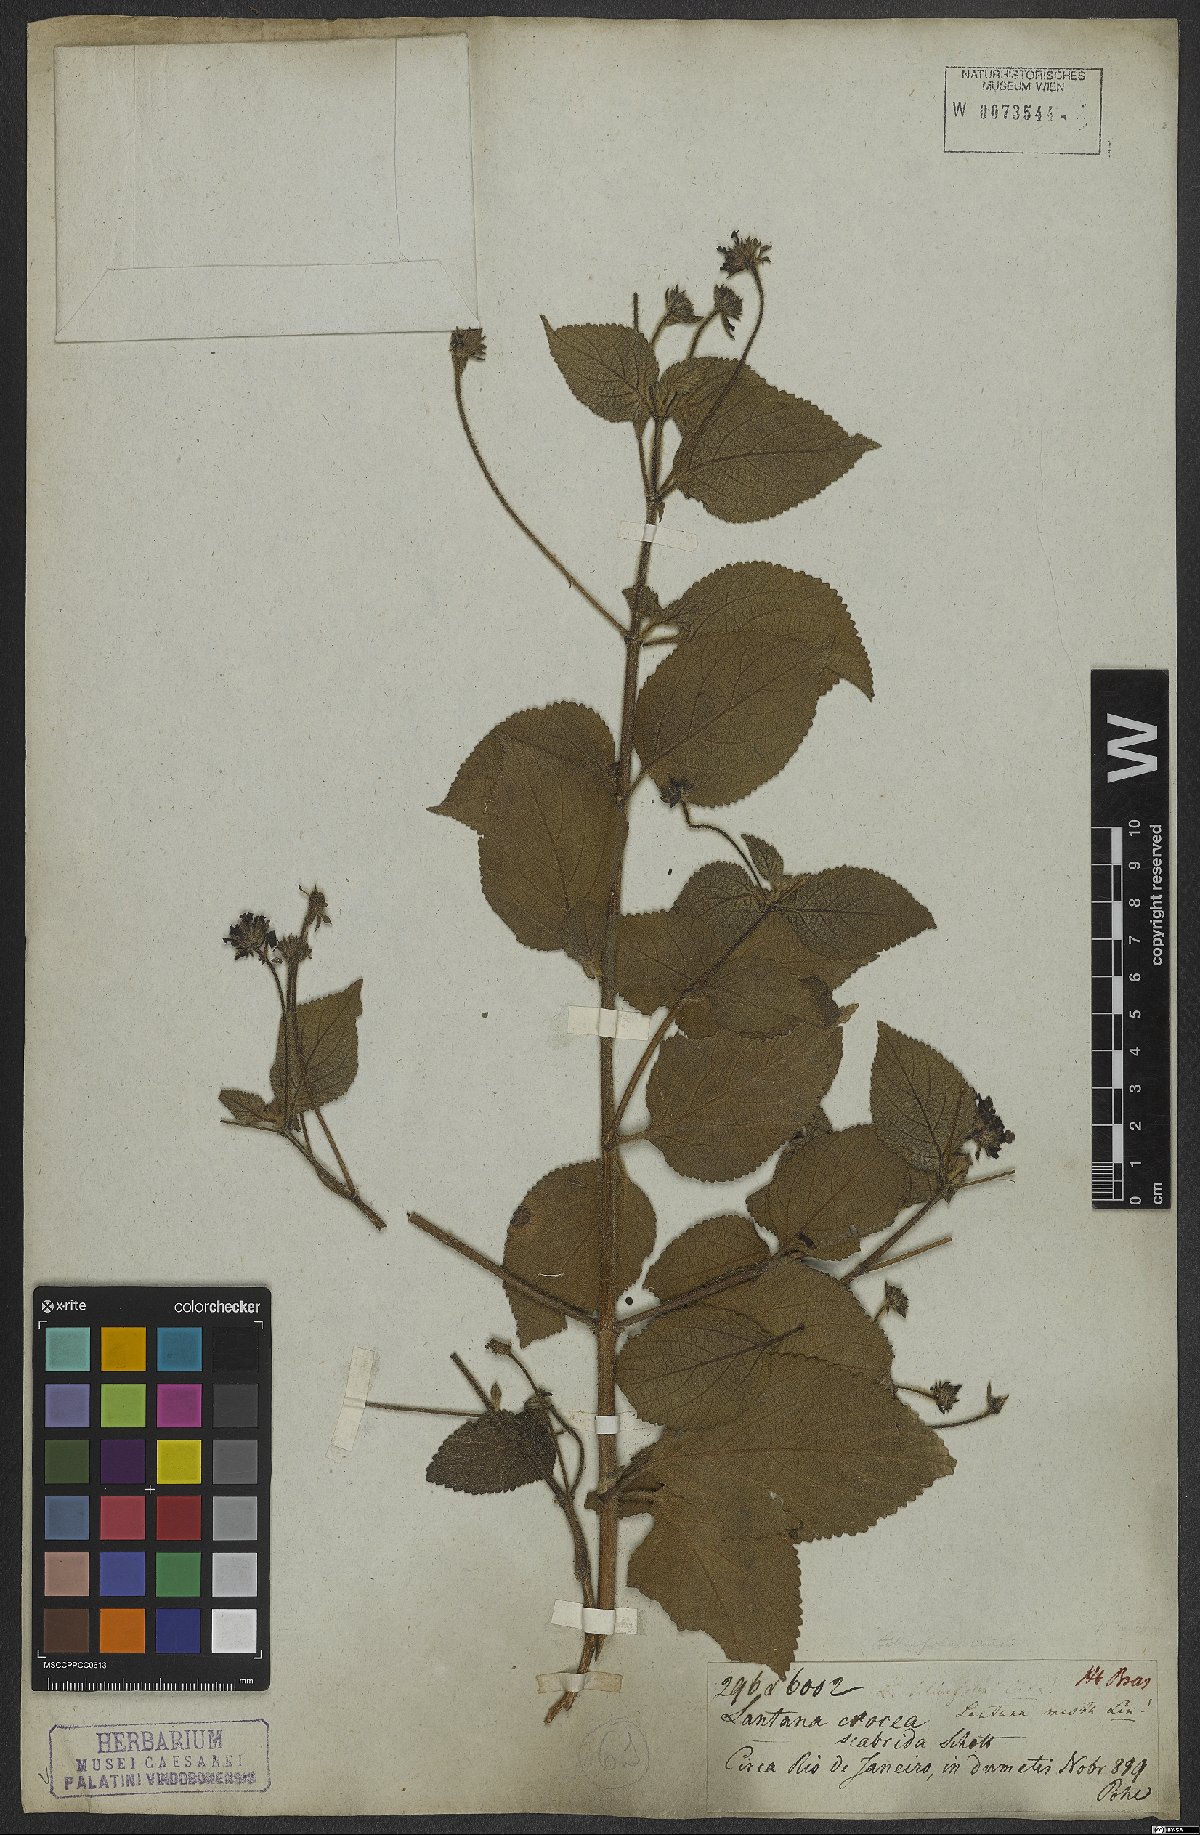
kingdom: Plantae
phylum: Tracheophyta
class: Magnoliopsida
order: Lamiales
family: Verbenaceae
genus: Lantana
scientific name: Lantana camara
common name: Lantana
